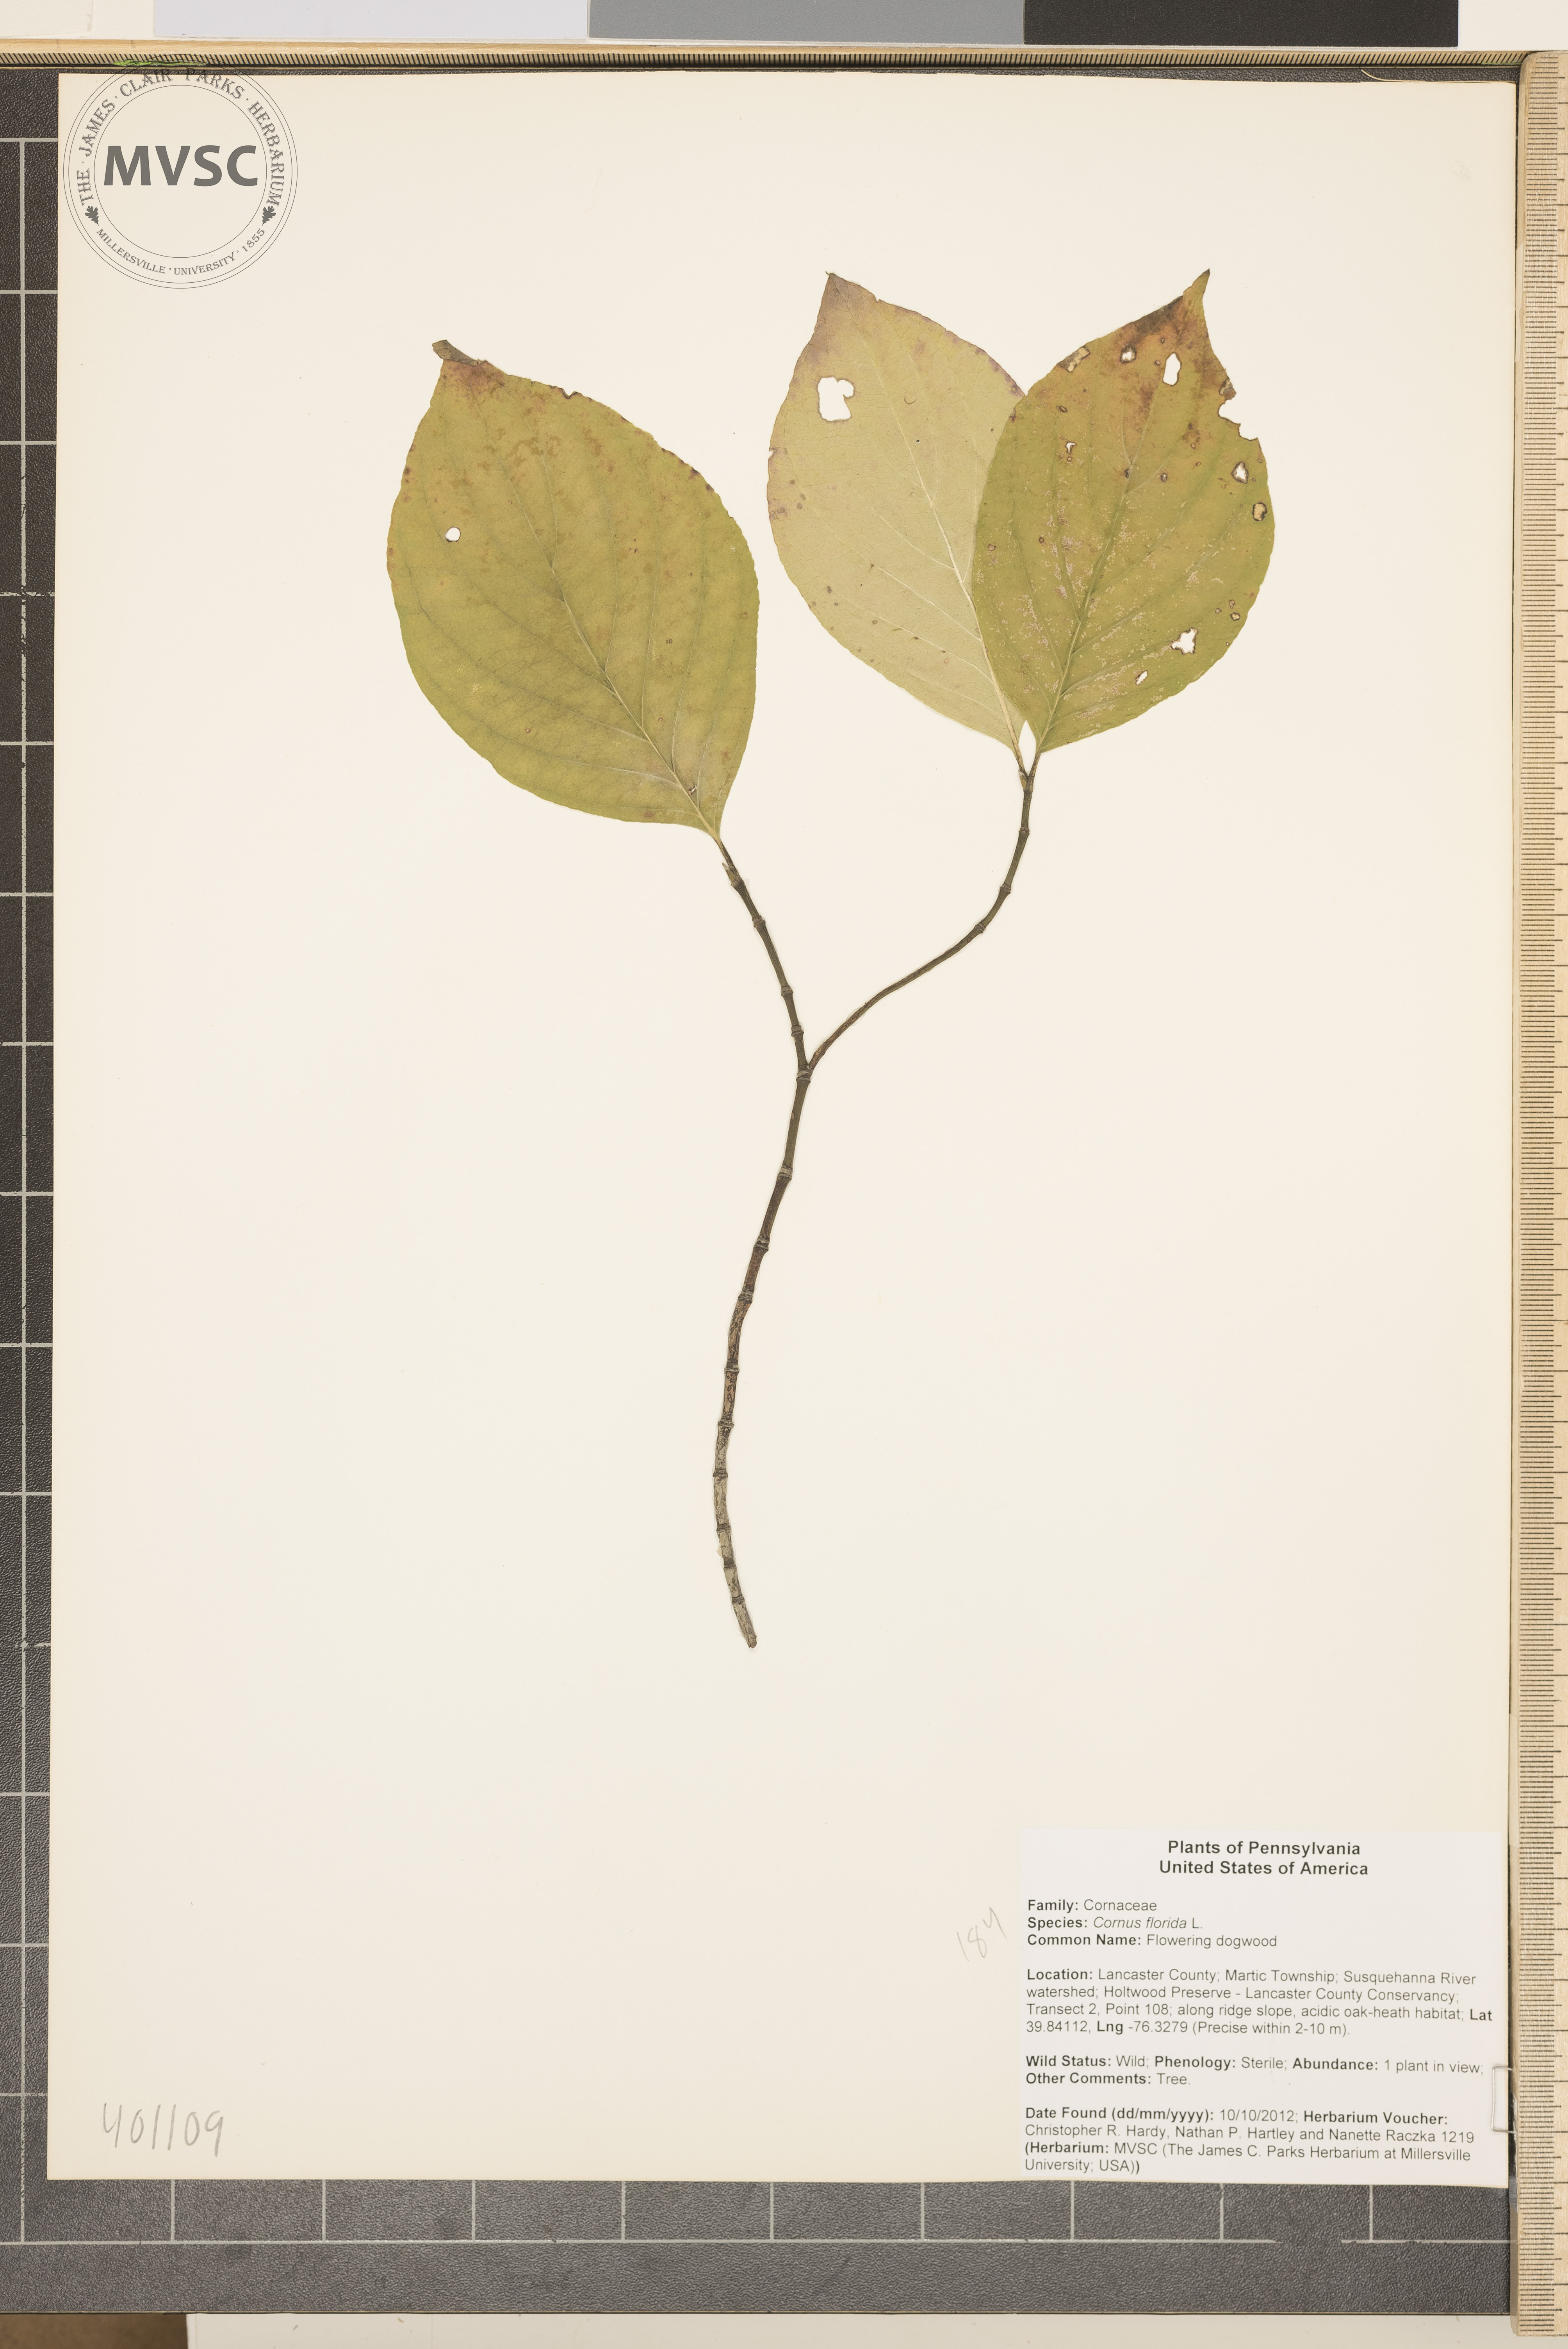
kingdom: Plantae
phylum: Tracheophyta
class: Magnoliopsida
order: Cornales
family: Cornaceae
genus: Cornus
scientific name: Cornus florida
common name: Flowering dogwood
